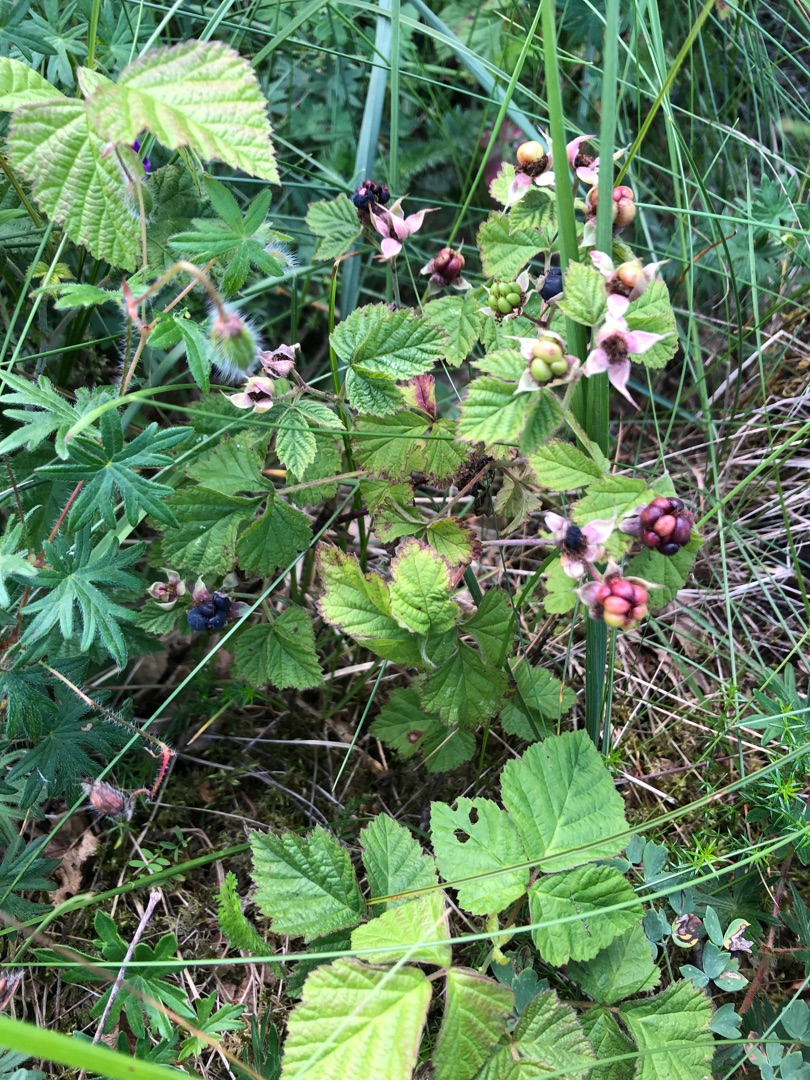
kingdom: Plantae
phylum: Tracheophyta
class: Magnoliopsida
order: Rosales
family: Rosaceae
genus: Rubus
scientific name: Rubus caesius
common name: Korbær
